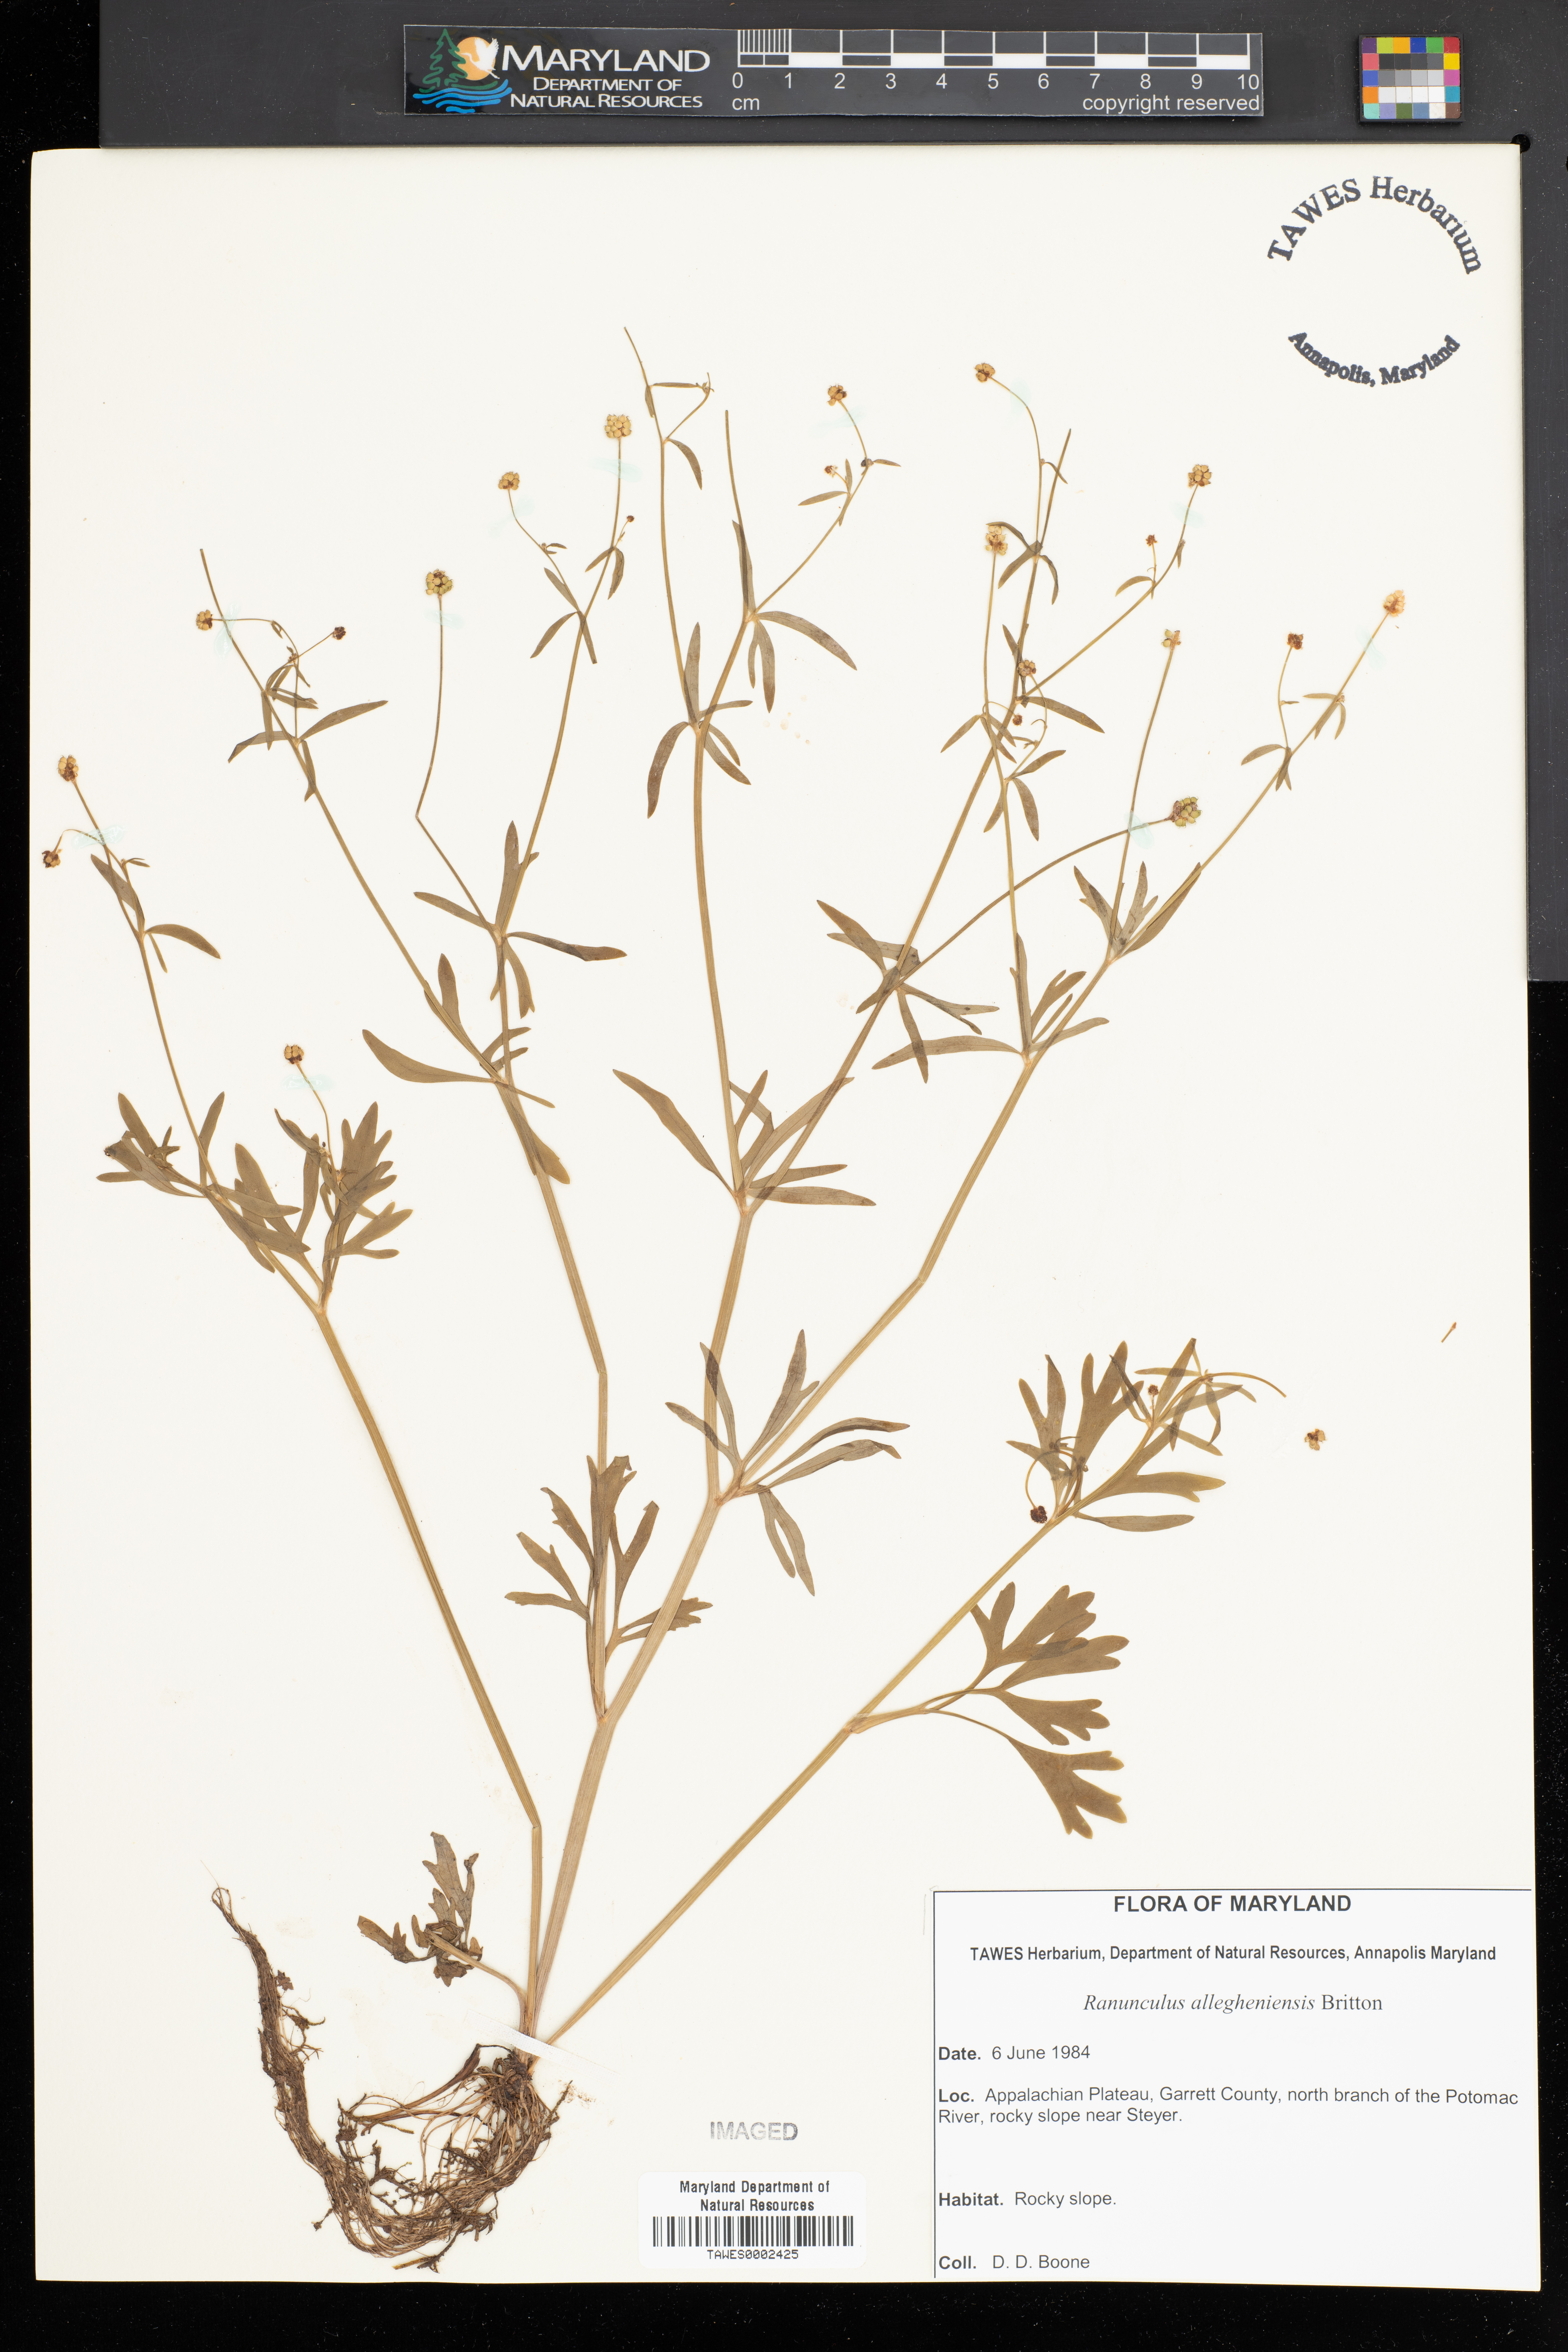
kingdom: Plantae
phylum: Tracheophyta
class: Magnoliopsida
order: Ranunculales
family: Ranunculaceae
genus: Ranunculus
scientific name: Ranunculus allegheniensis
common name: Allegheny mountain buttercup
